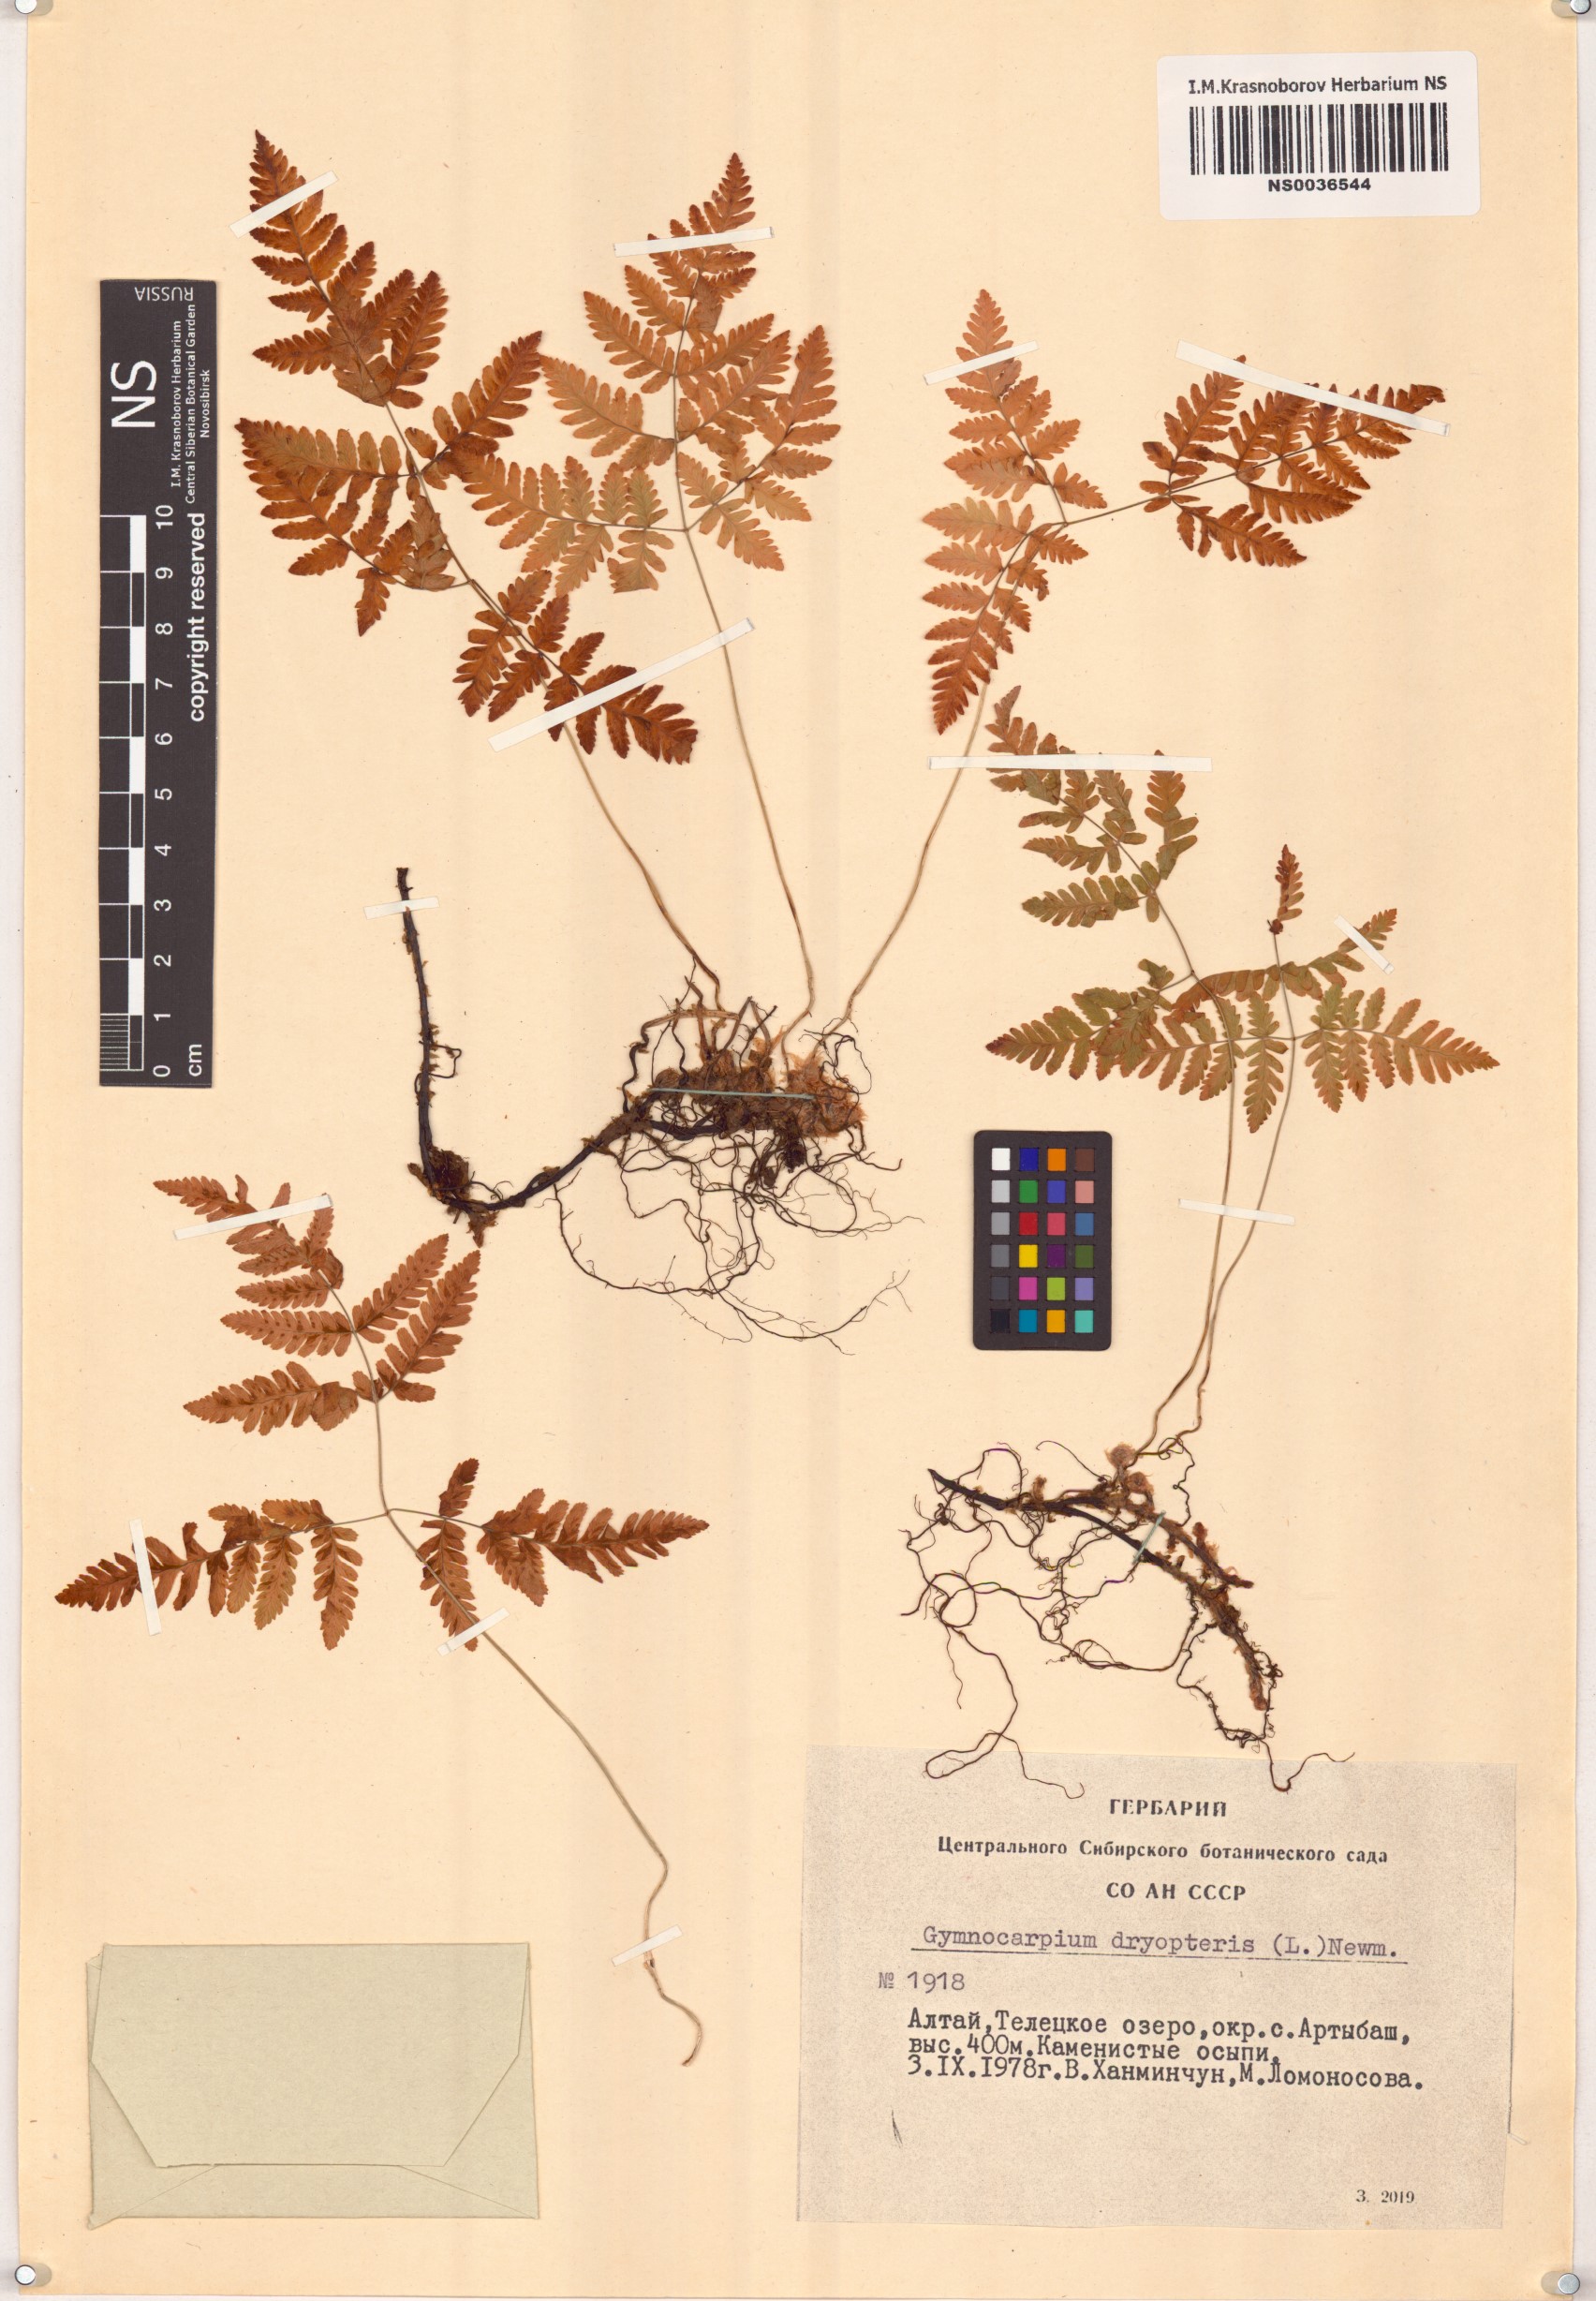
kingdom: Plantae
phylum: Tracheophyta
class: Polypodiopsida
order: Polypodiales
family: Cystopteridaceae
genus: Gymnocarpium
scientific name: Gymnocarpium dryopteris
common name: Oak fern
